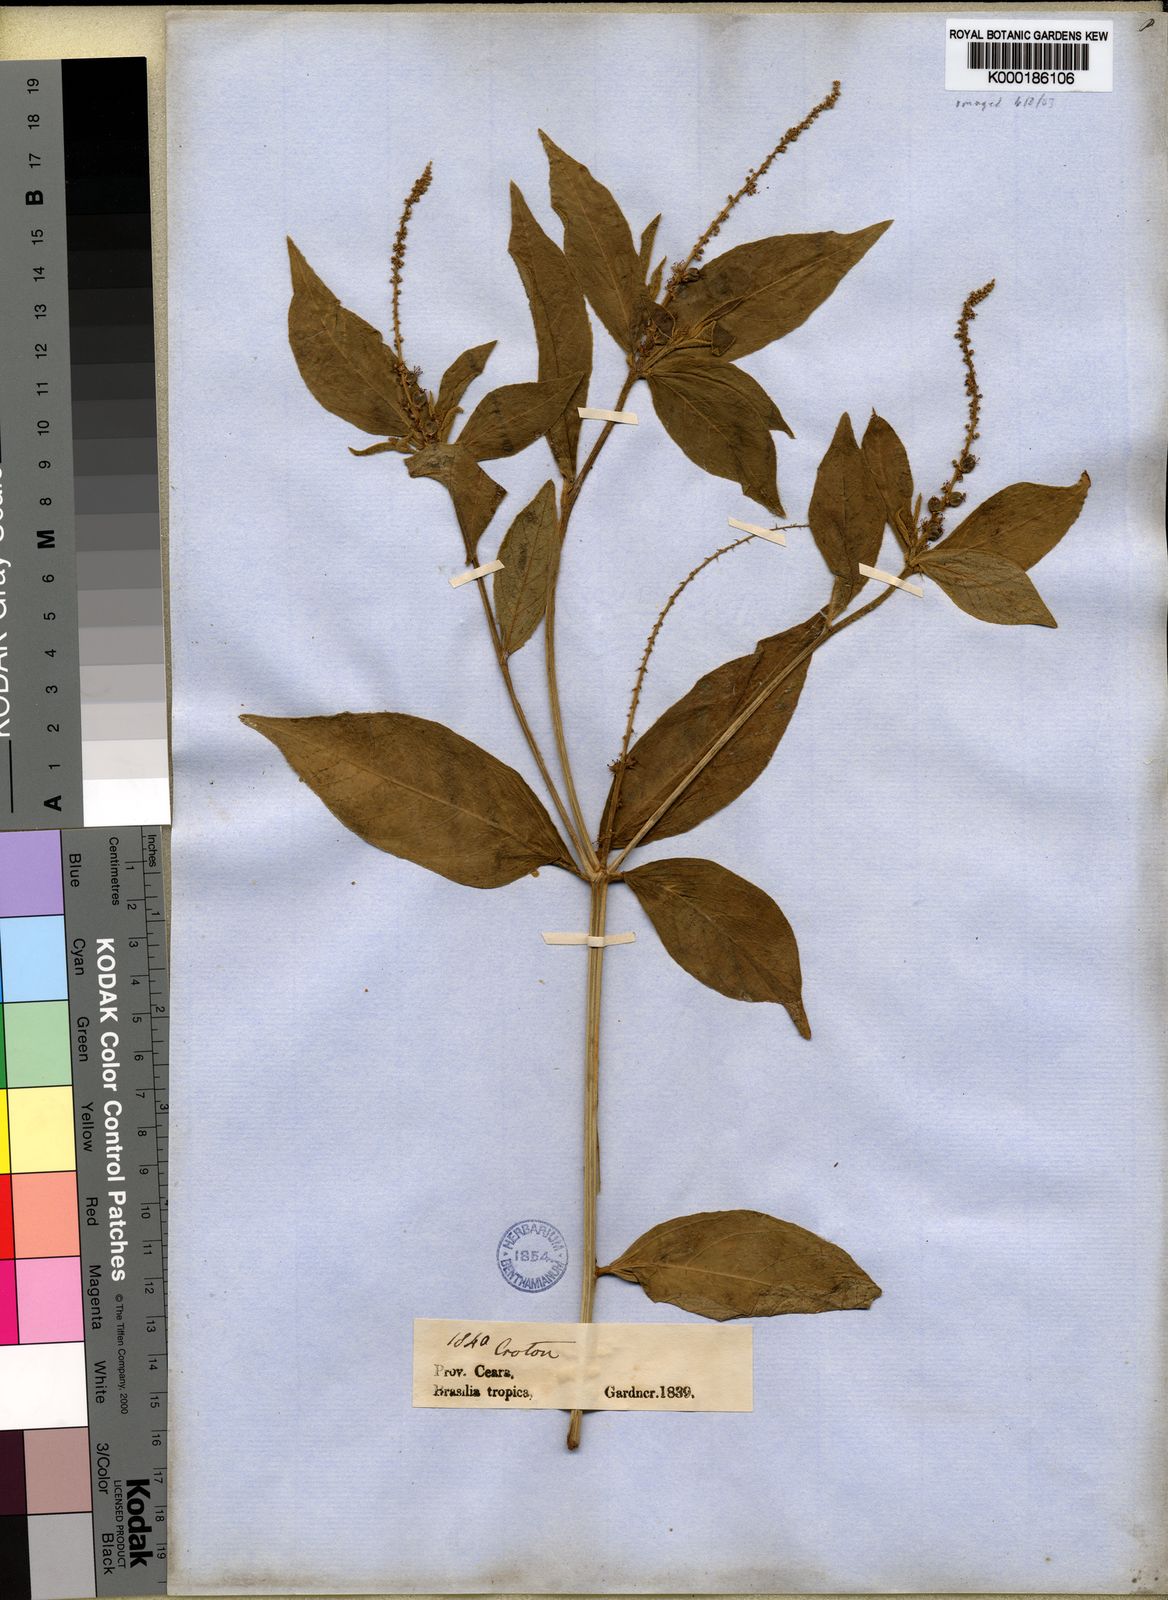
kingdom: Plantae
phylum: Tracheophyta
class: Magnoliopsida
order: Malpighiales
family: Euphorbiaceae
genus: Croton
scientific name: Croton betaceus
